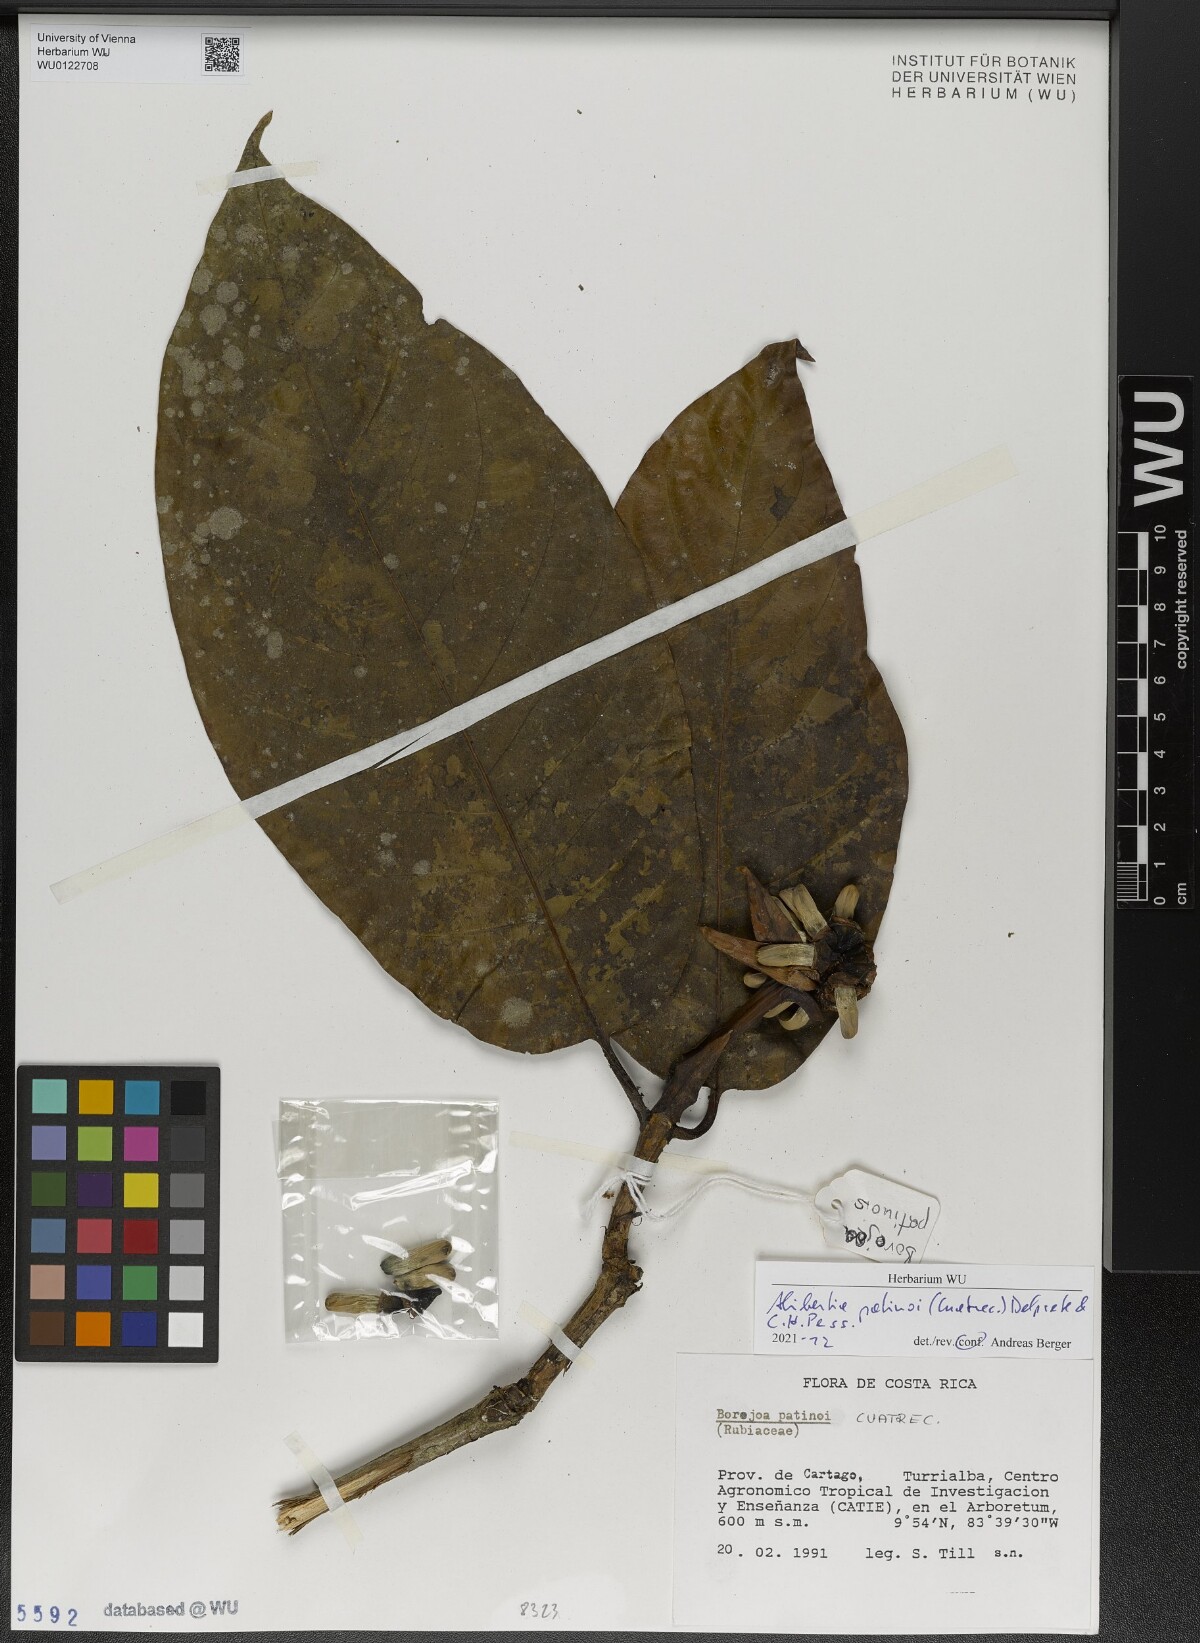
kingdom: Plantae
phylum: Tracheophyta
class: Magnoliopsida
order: Gentianales
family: Rubiaceae
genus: Alibertia
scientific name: Alibertia patinoi
